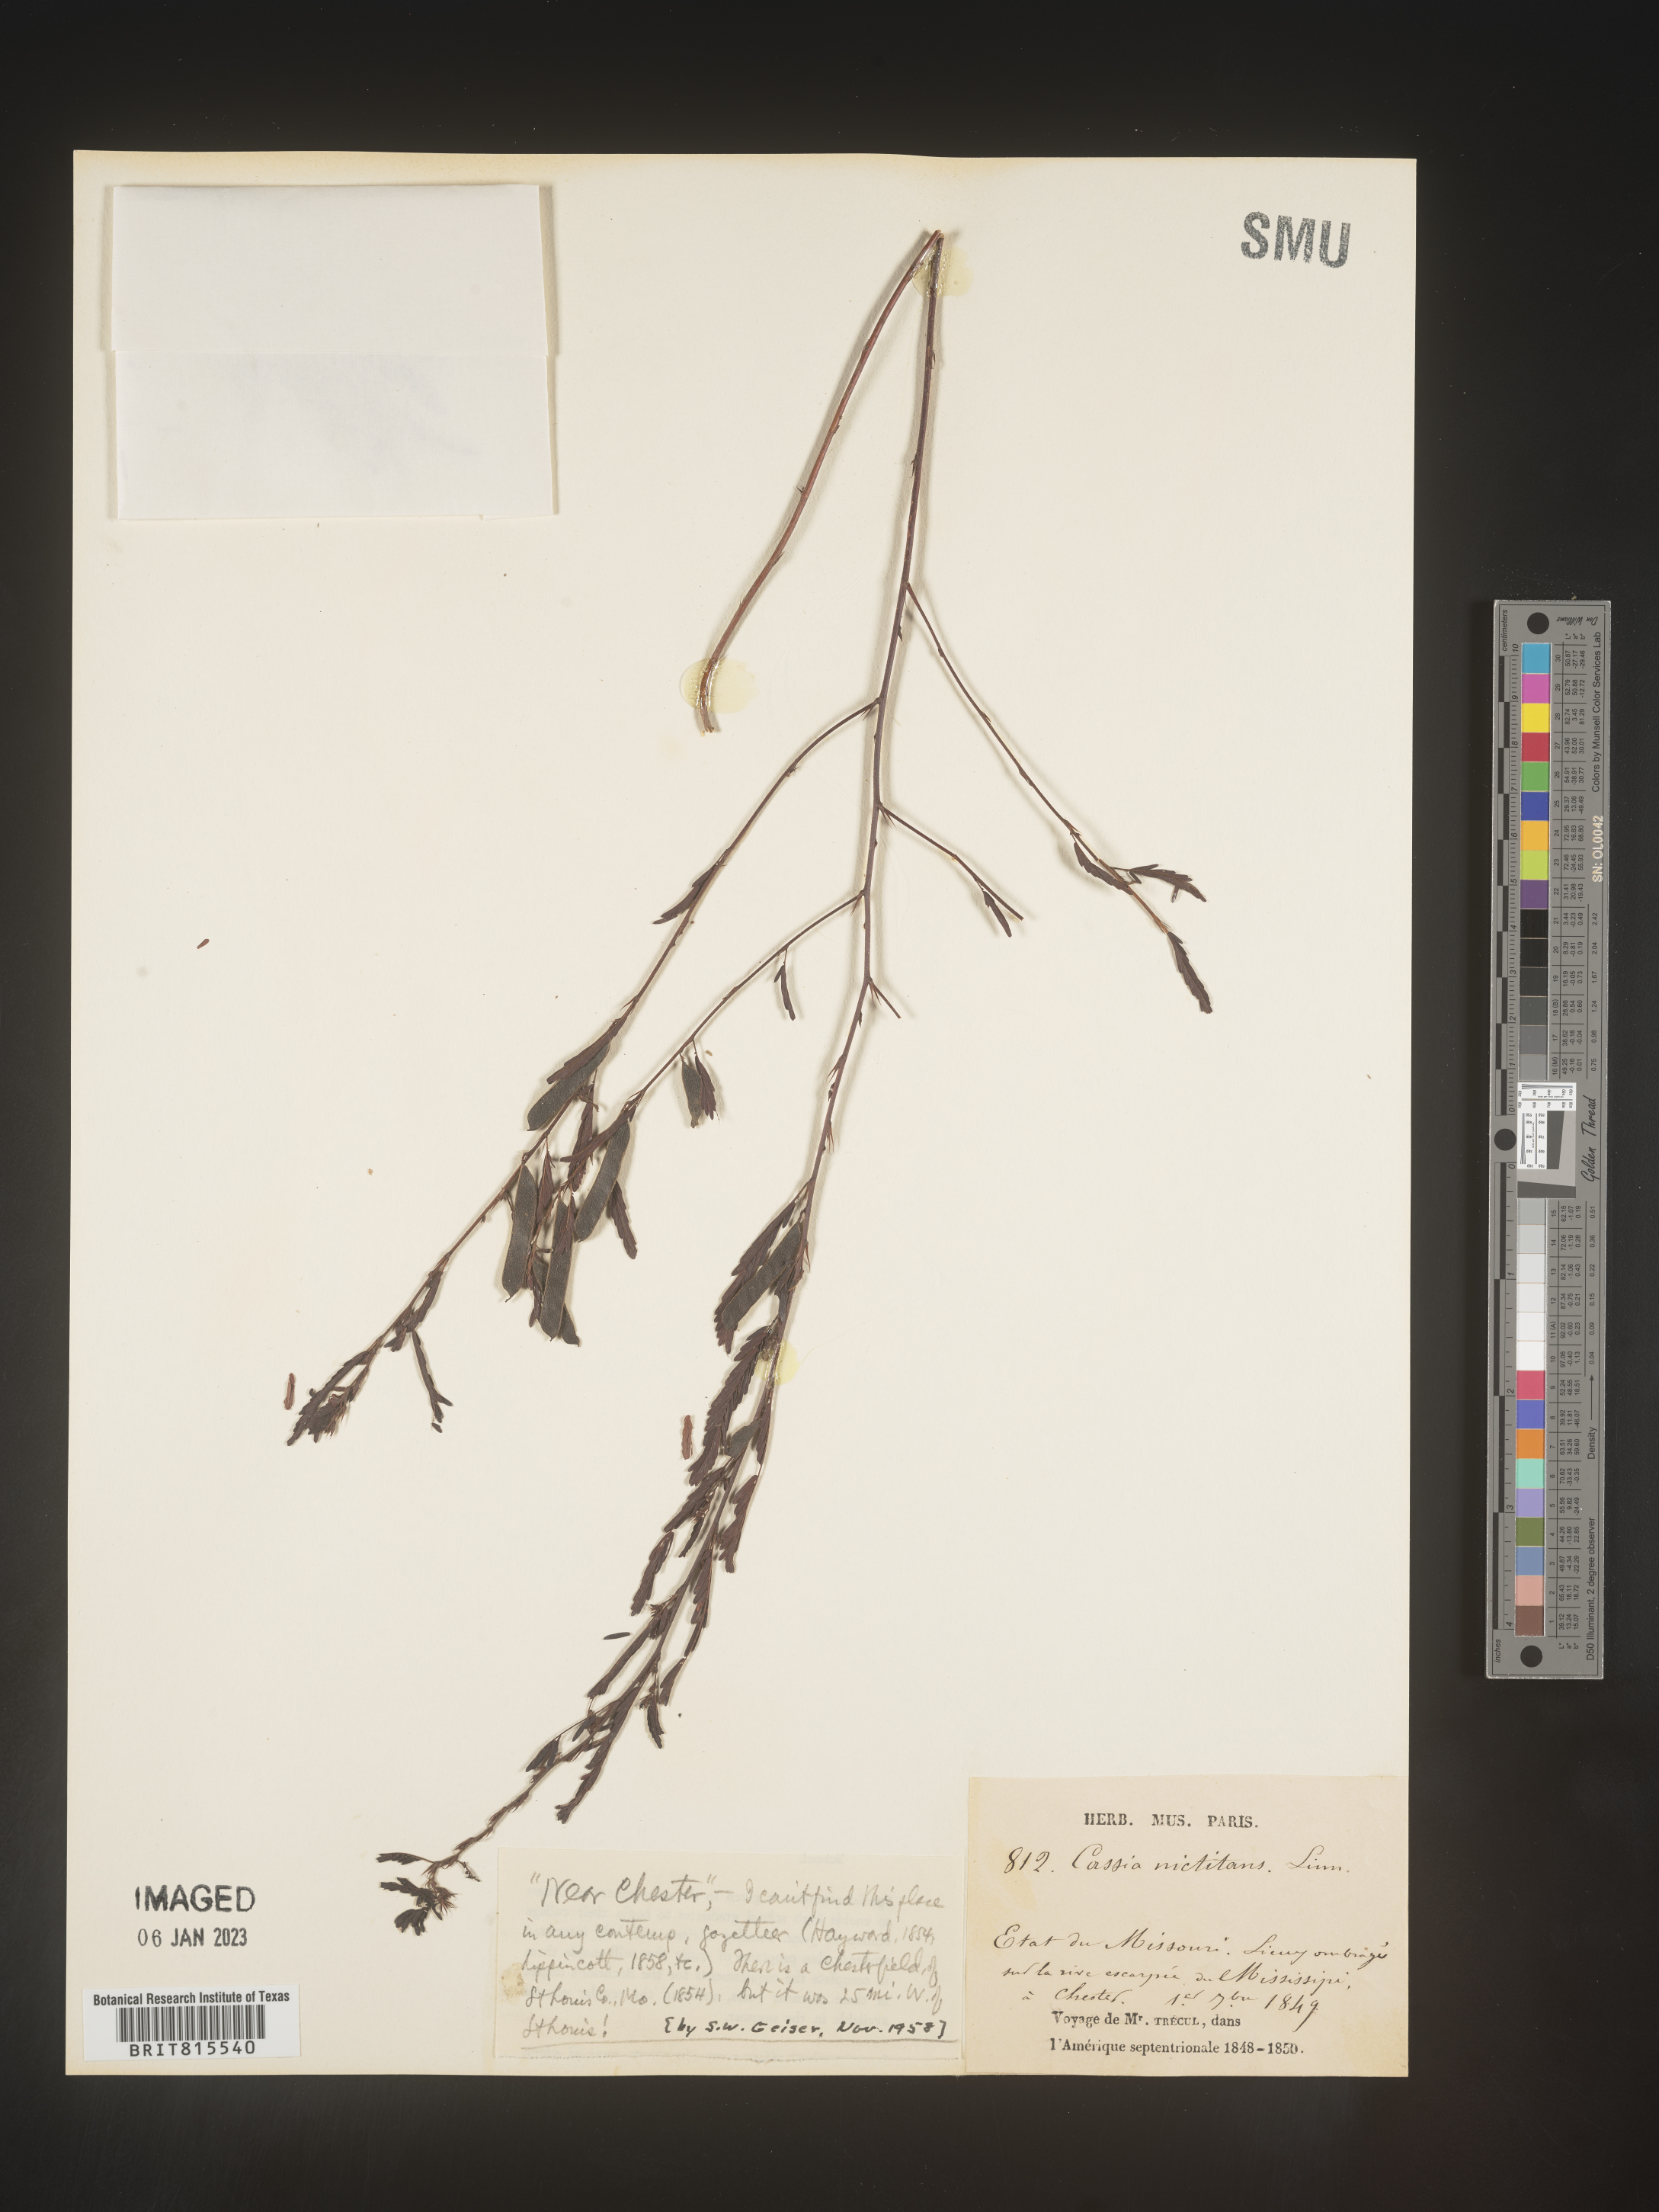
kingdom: Plantae
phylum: Tracheophyta
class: Magnoliopsida
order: Fabales
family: Fabaceae
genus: Chamaecrista
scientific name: Chamaecrista nictitans
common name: Sensitive cassia
